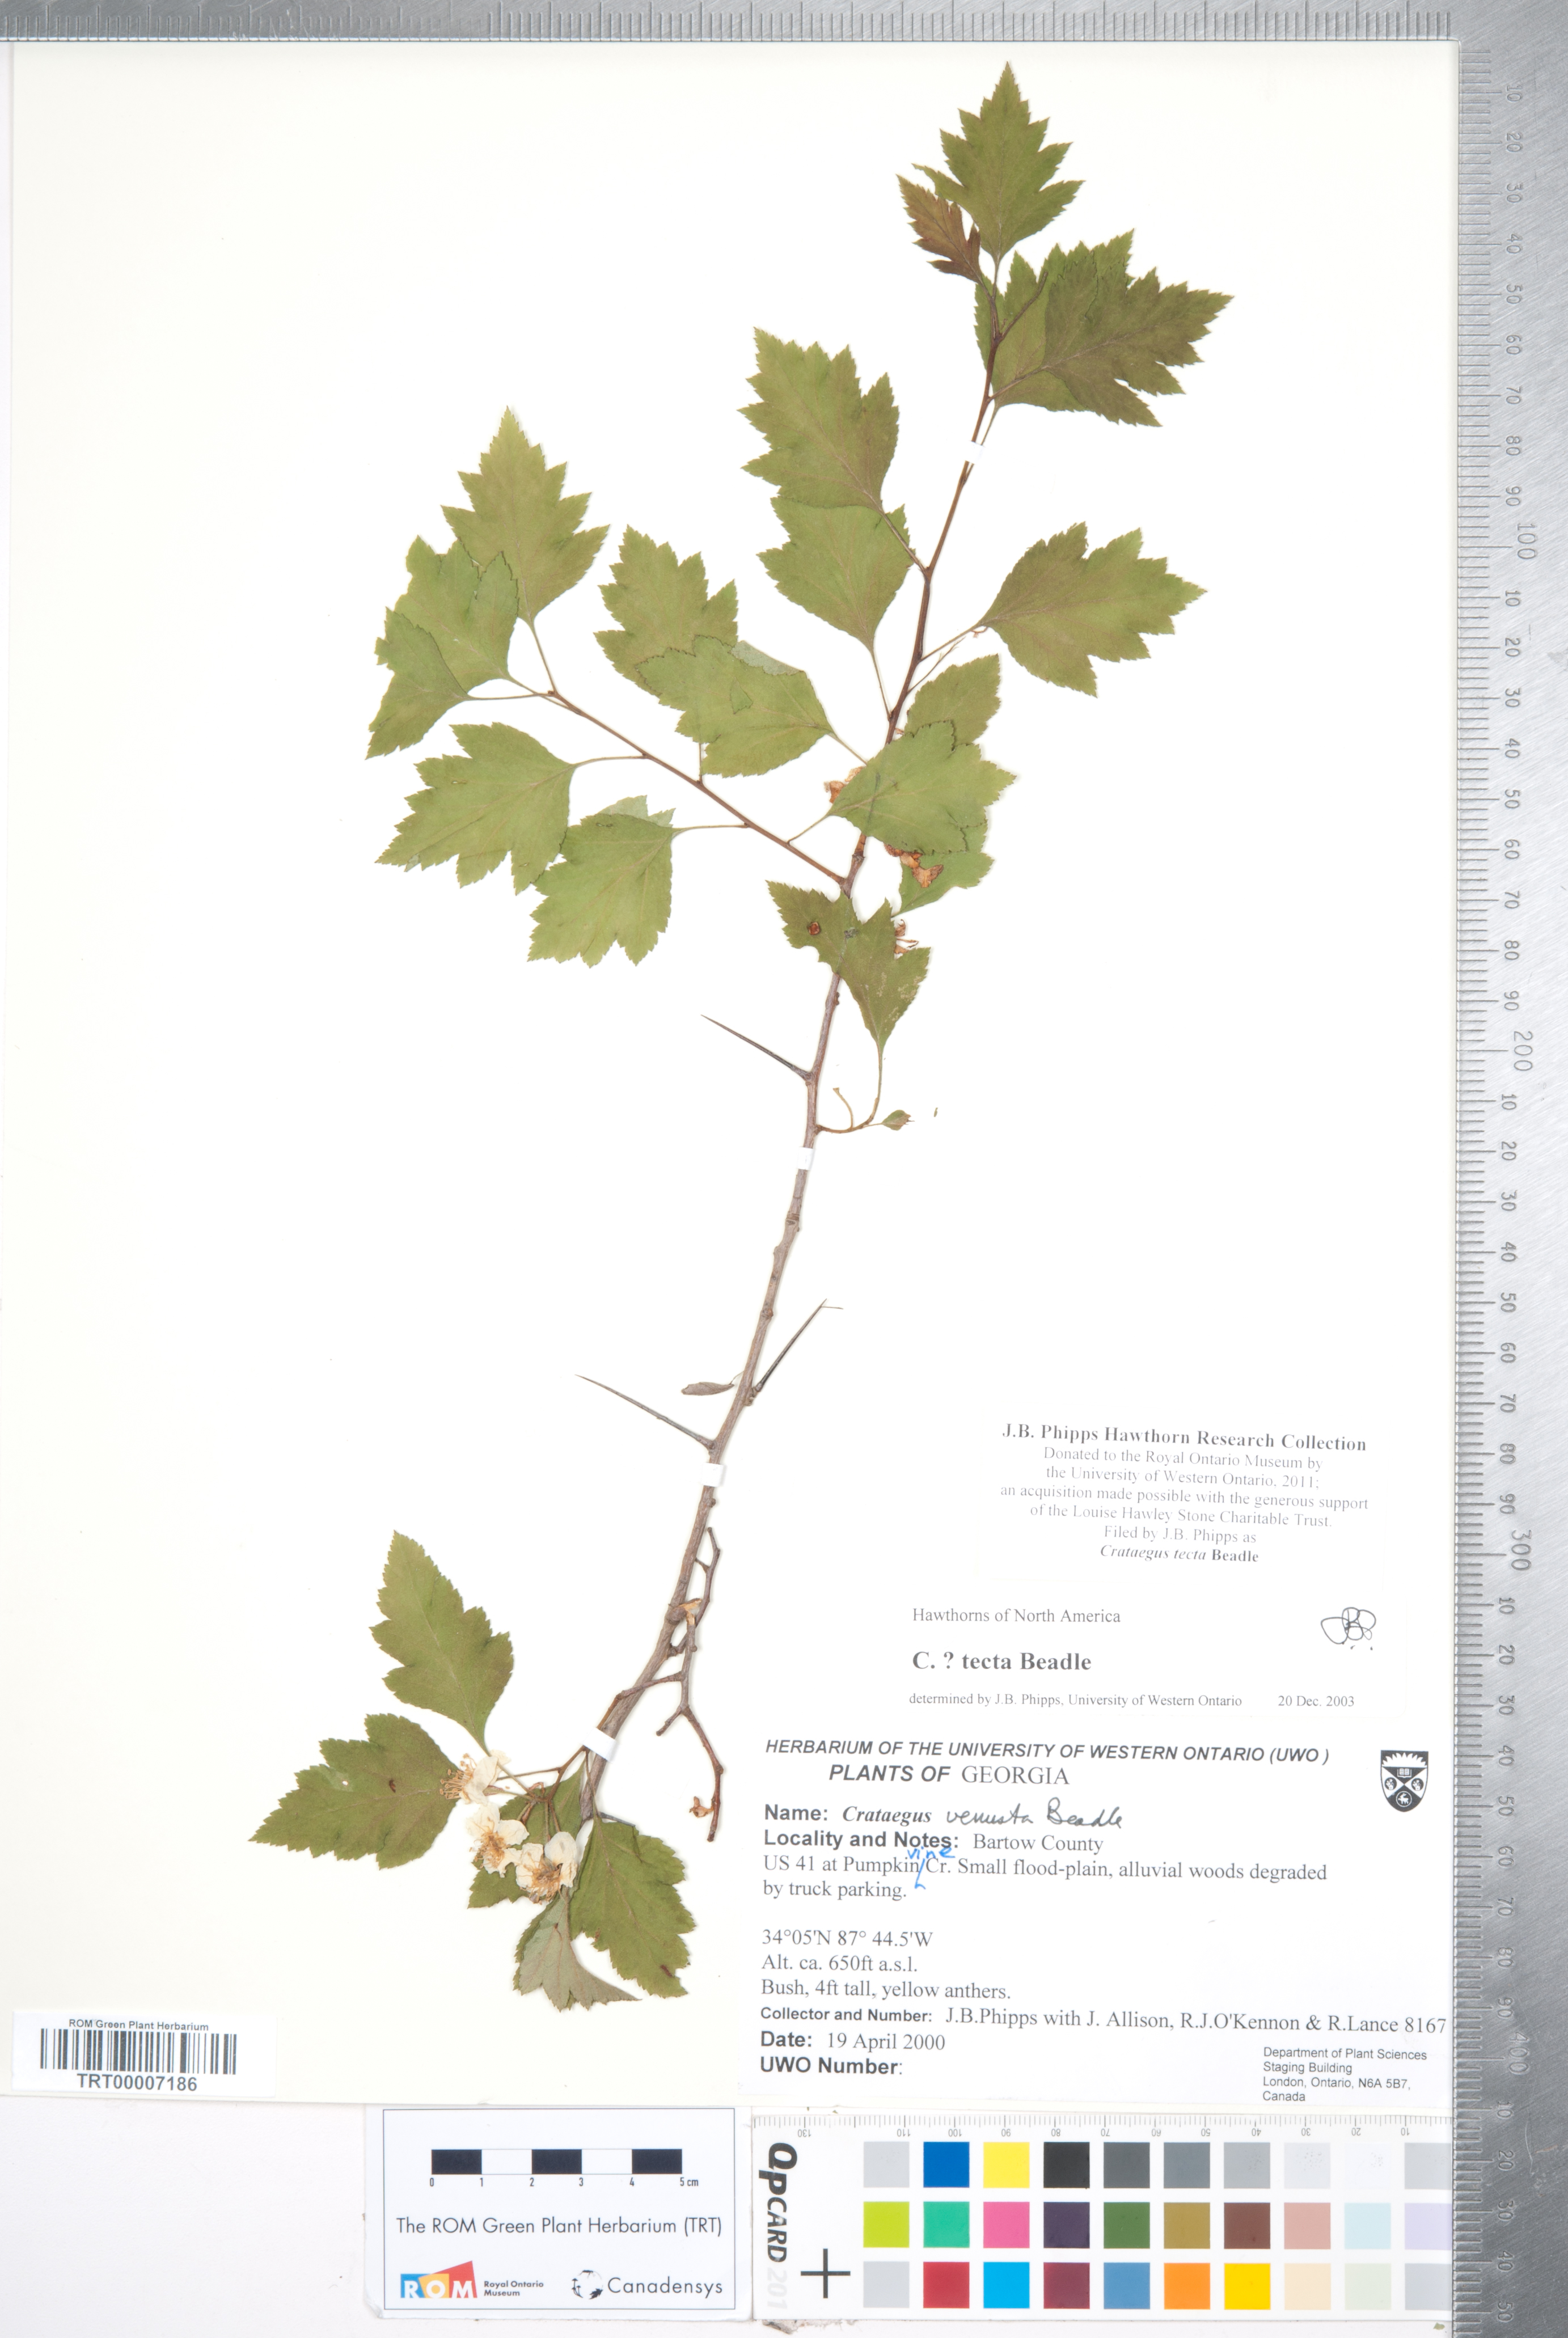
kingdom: Plantae
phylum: Tracheophyta
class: Magnoliopsida
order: Rosales
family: Rosaceae
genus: Crataegus
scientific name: Crataegus pulcherrima
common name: Beautiful hawthorn
